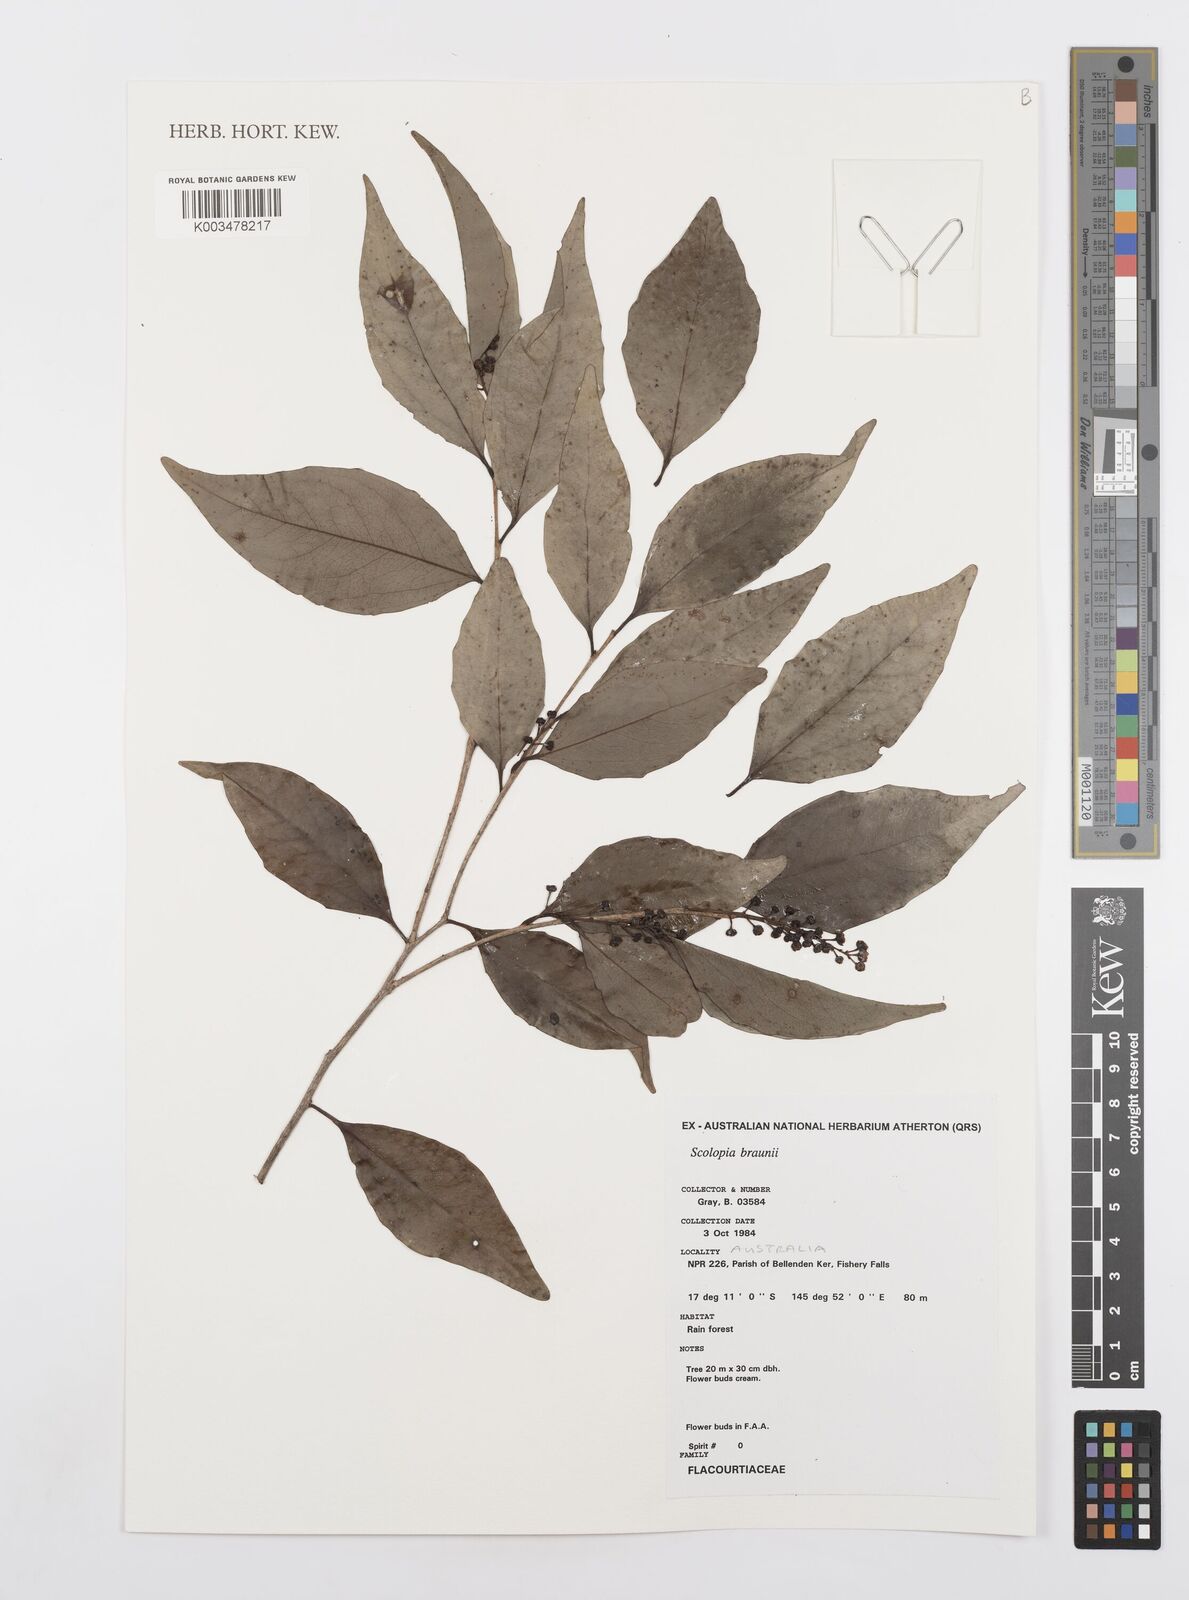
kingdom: Plantae
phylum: Tracheophyta
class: Magnoliopsida
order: Malpighiales
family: Salicaceae
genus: Scolopia
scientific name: Scolopia braunii
